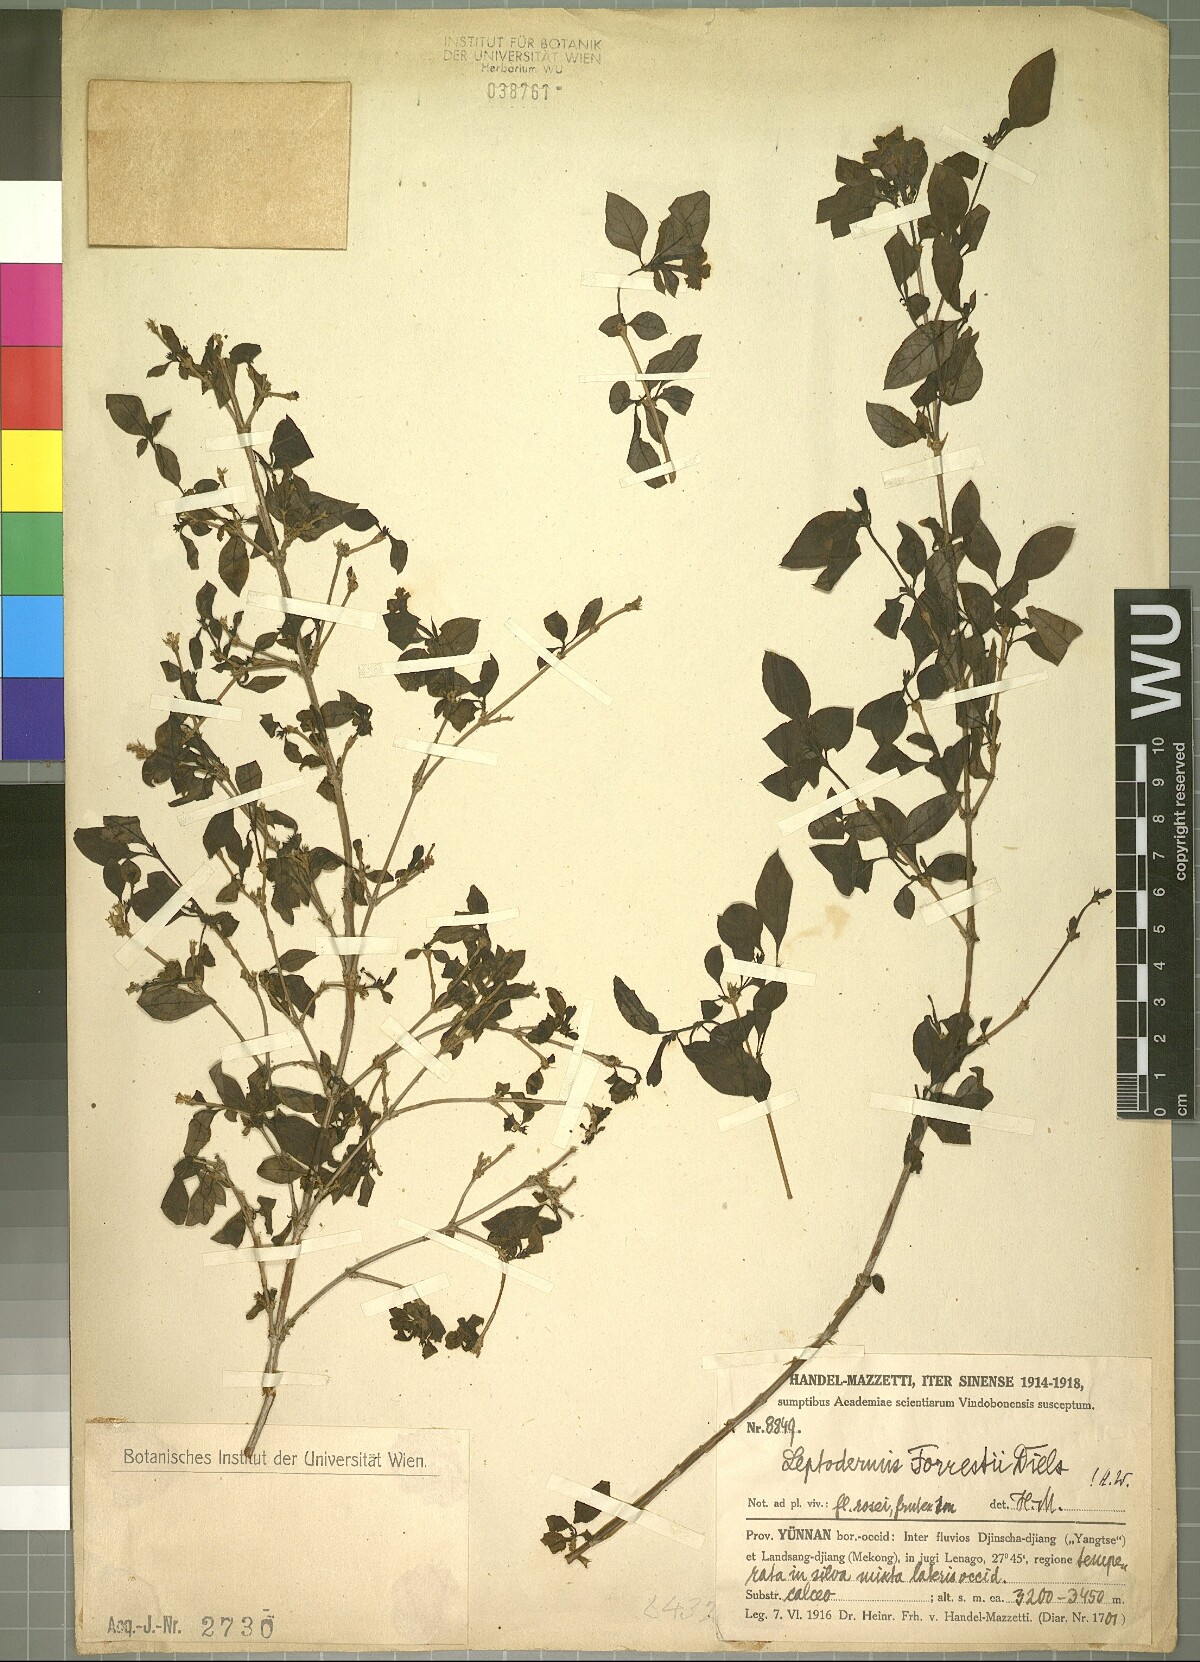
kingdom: Plantae
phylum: Tracheophyta
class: Magnoliopsida
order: Gentianales
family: Rubiaceae
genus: Leptodermis
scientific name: Leptodermis forrestii
